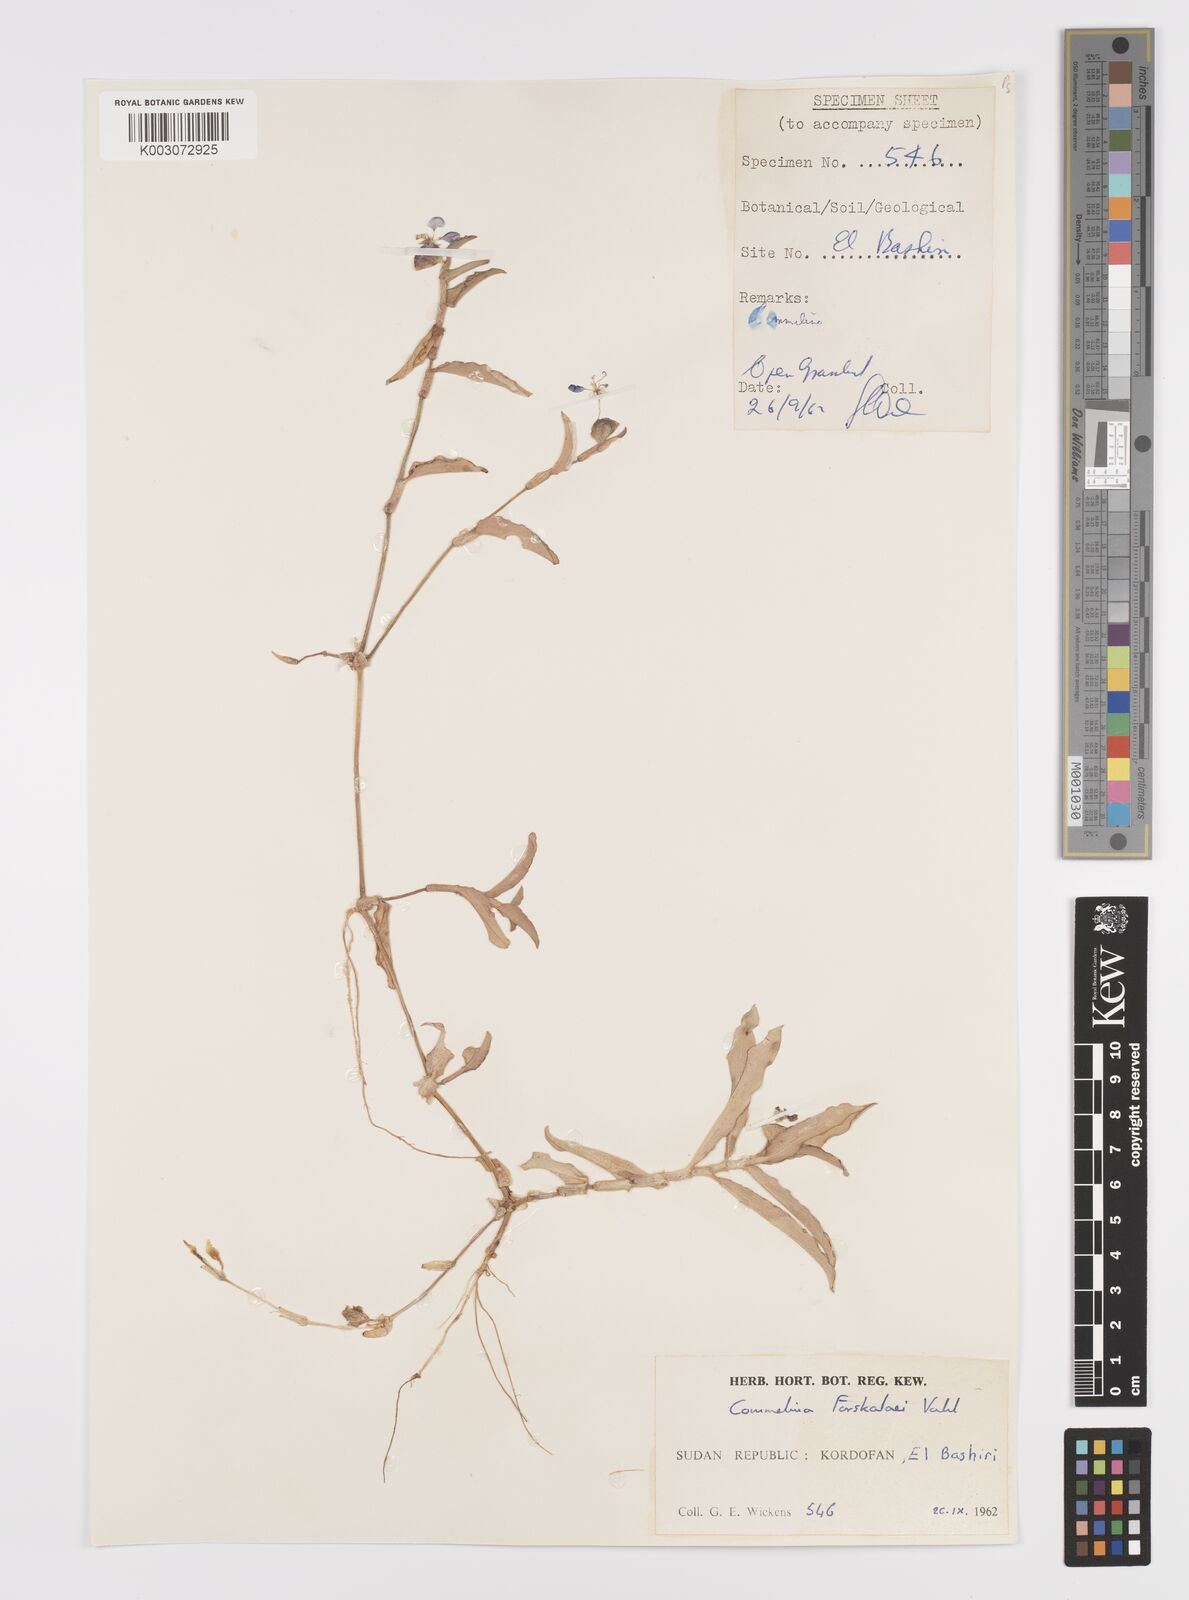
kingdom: Plantae
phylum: Tracheophyta
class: Liliopsida
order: Commelinales
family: Commelinaceae
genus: Commelina
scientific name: Commelina forskaolii
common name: Rat's ear
